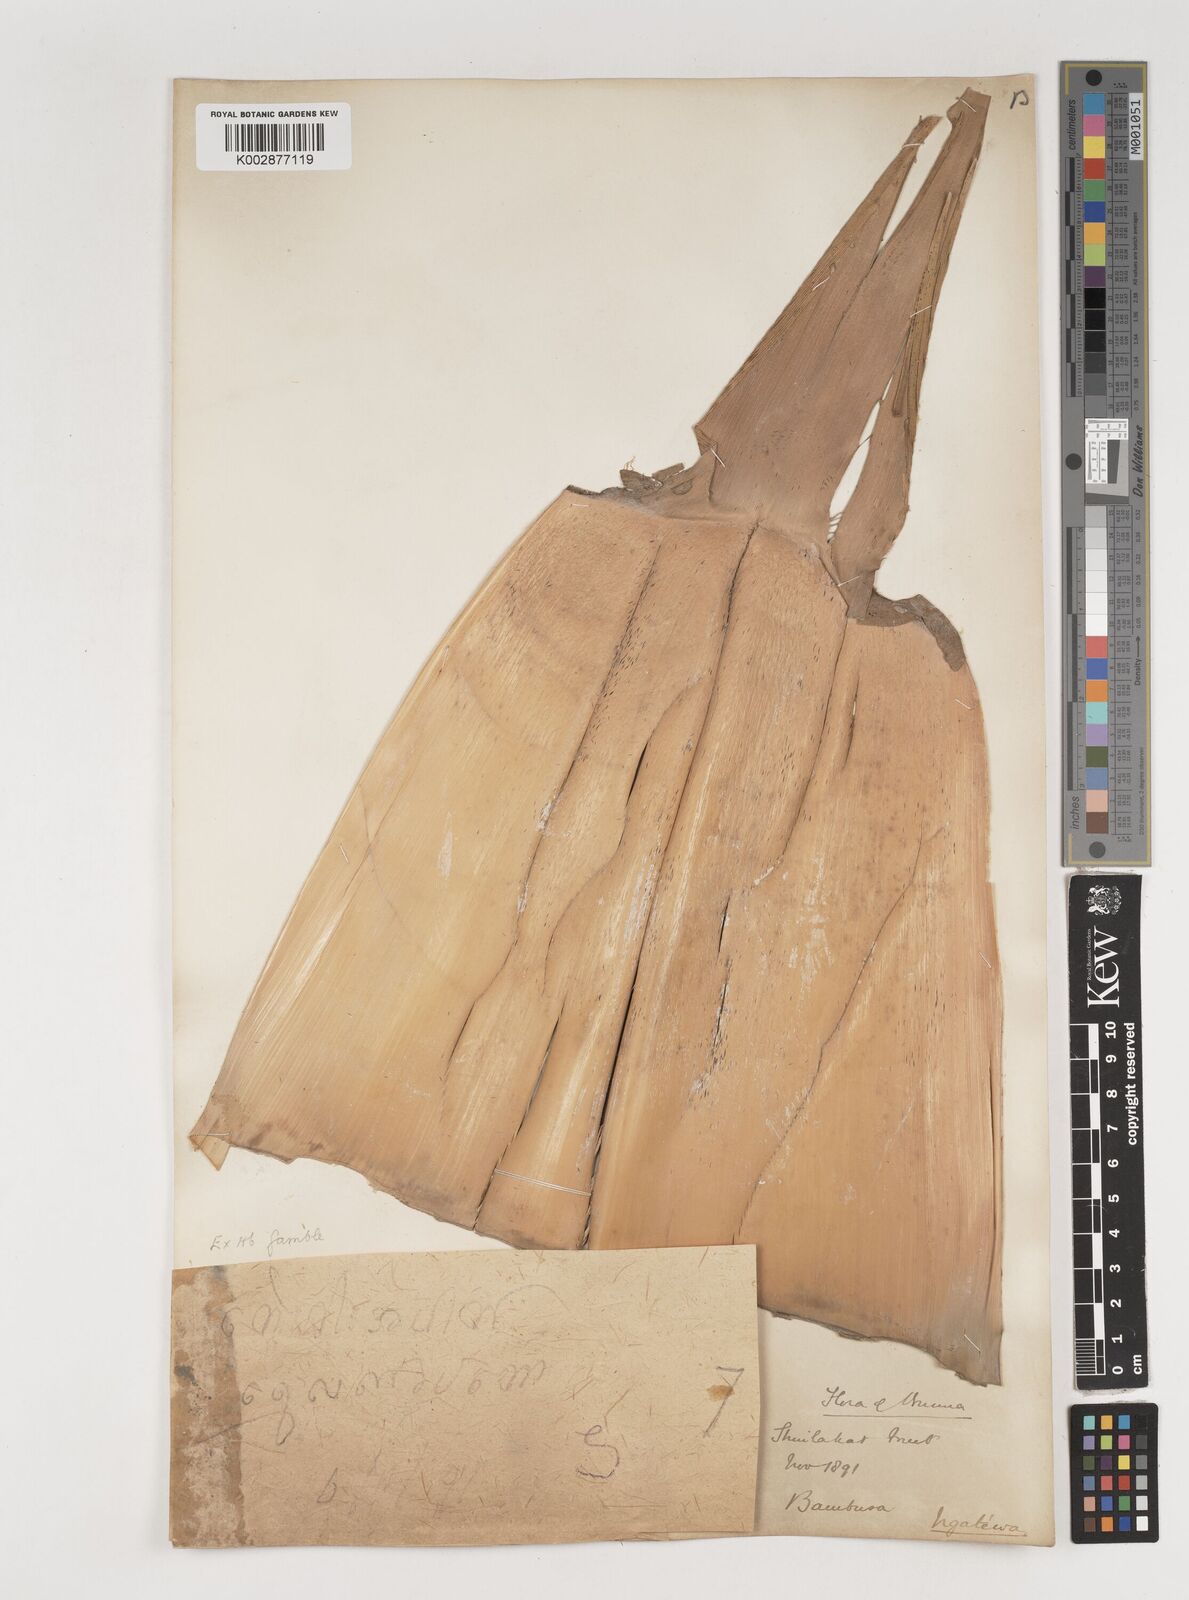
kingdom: Plantae
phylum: Tracheophyta
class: Liliopsida
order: Poales
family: Poaceae
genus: Bambusa
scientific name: Bambusa
